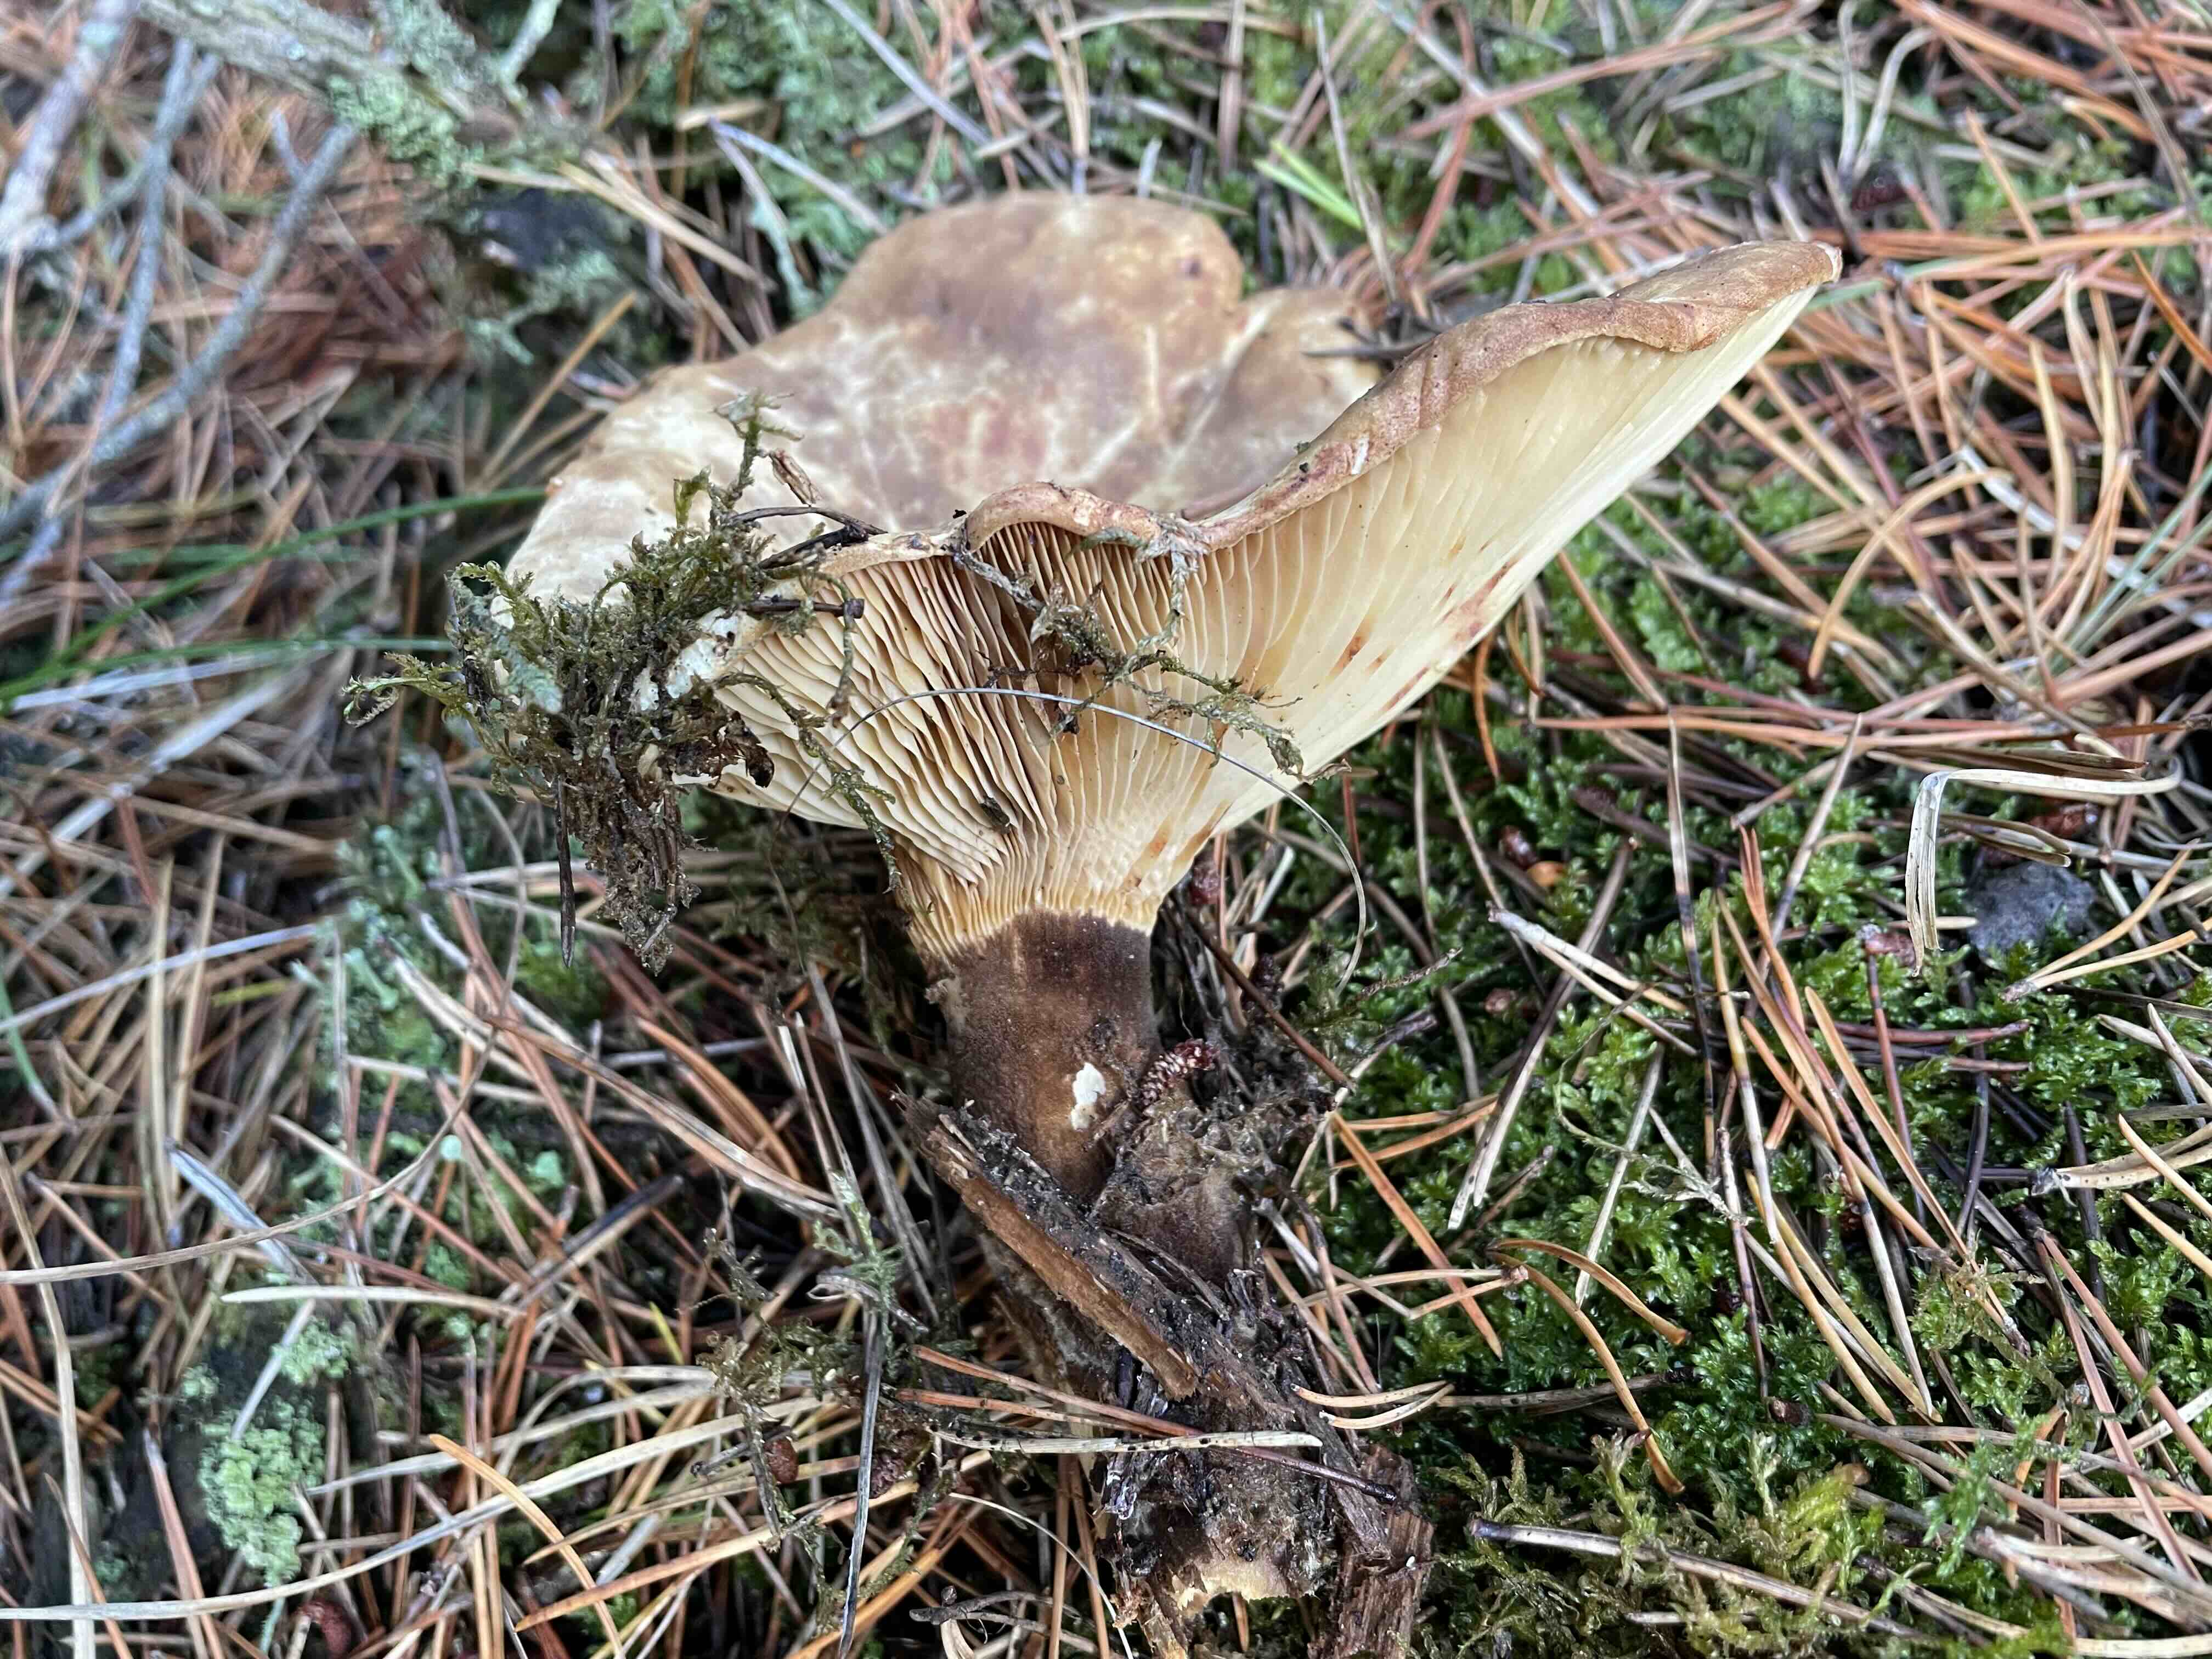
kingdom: Fungi
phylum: Basidiomycota
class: Agaricomycetes
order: Boletales
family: Tapinellaceae
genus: Tapinella
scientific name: Tapinella atrotomentosa
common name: sortfiltet viftesvamp
